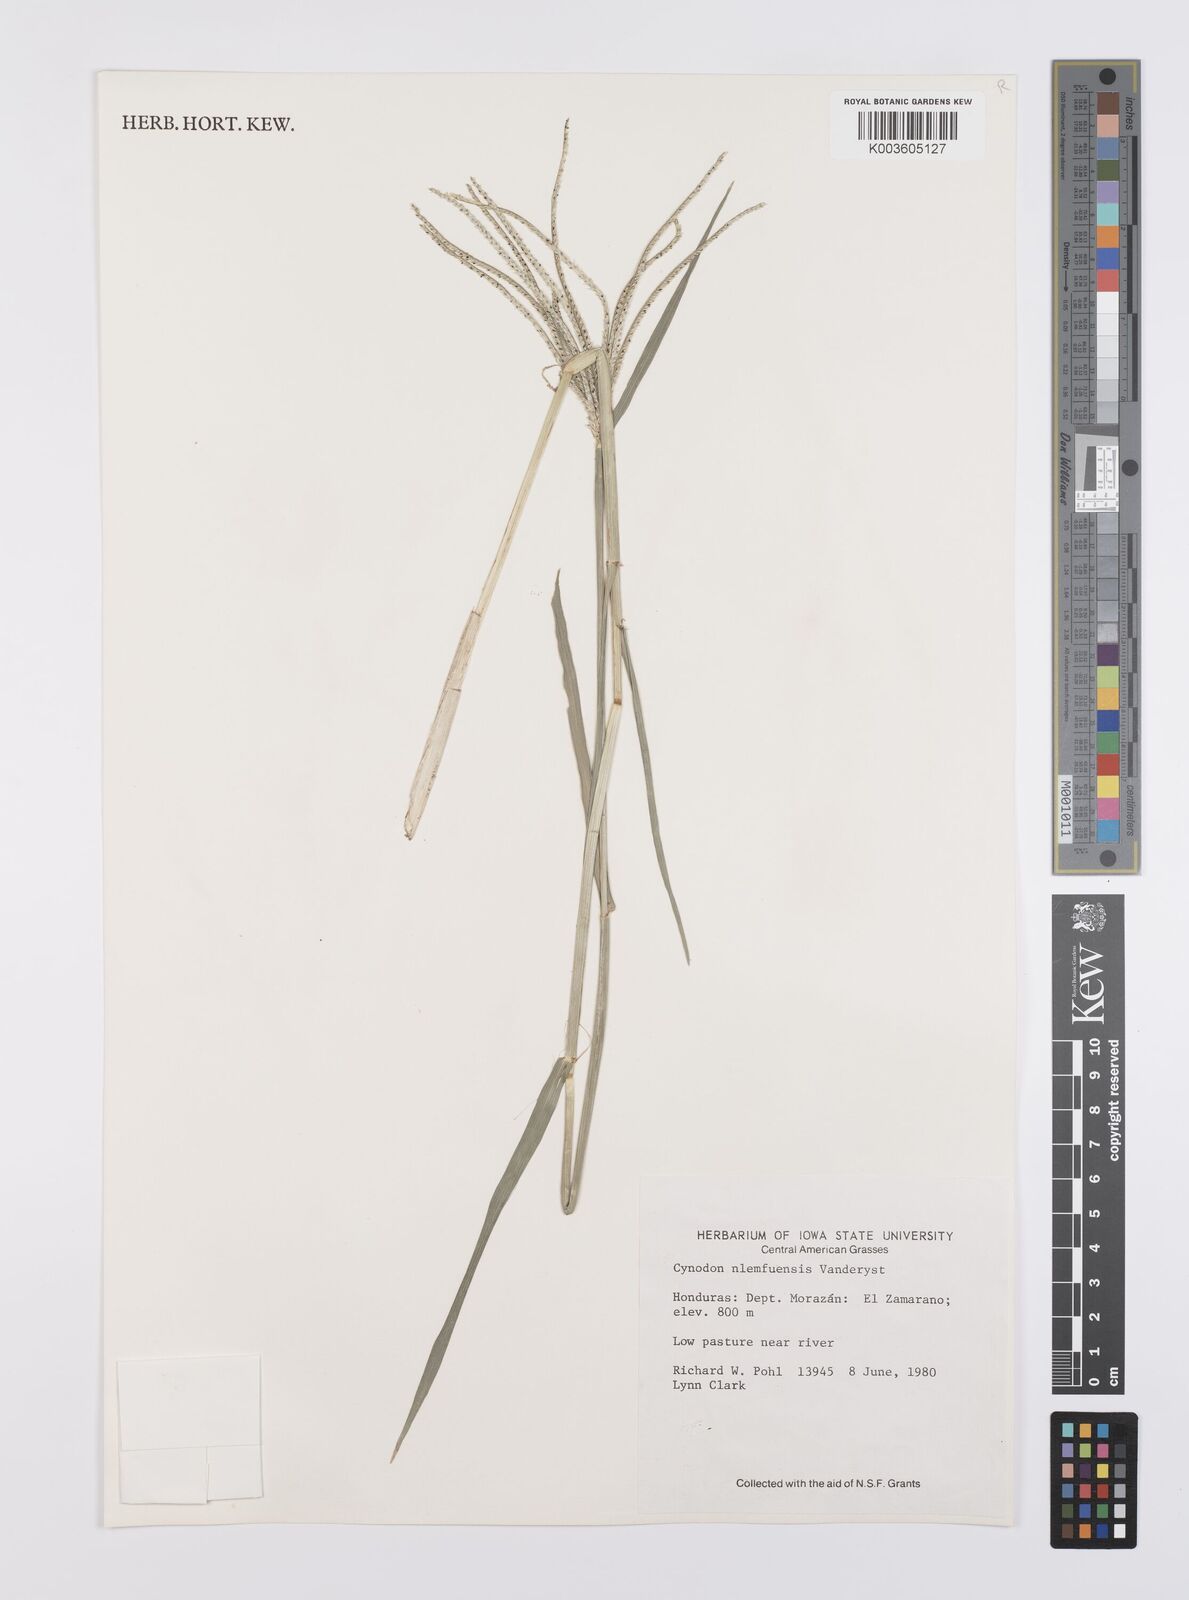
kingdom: Plantae
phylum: Tracheophyta
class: Liliopsida
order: Poales
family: Poaceae
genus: Cynodon
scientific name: Cynodon nlemfuensis
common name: African bermudagrass
